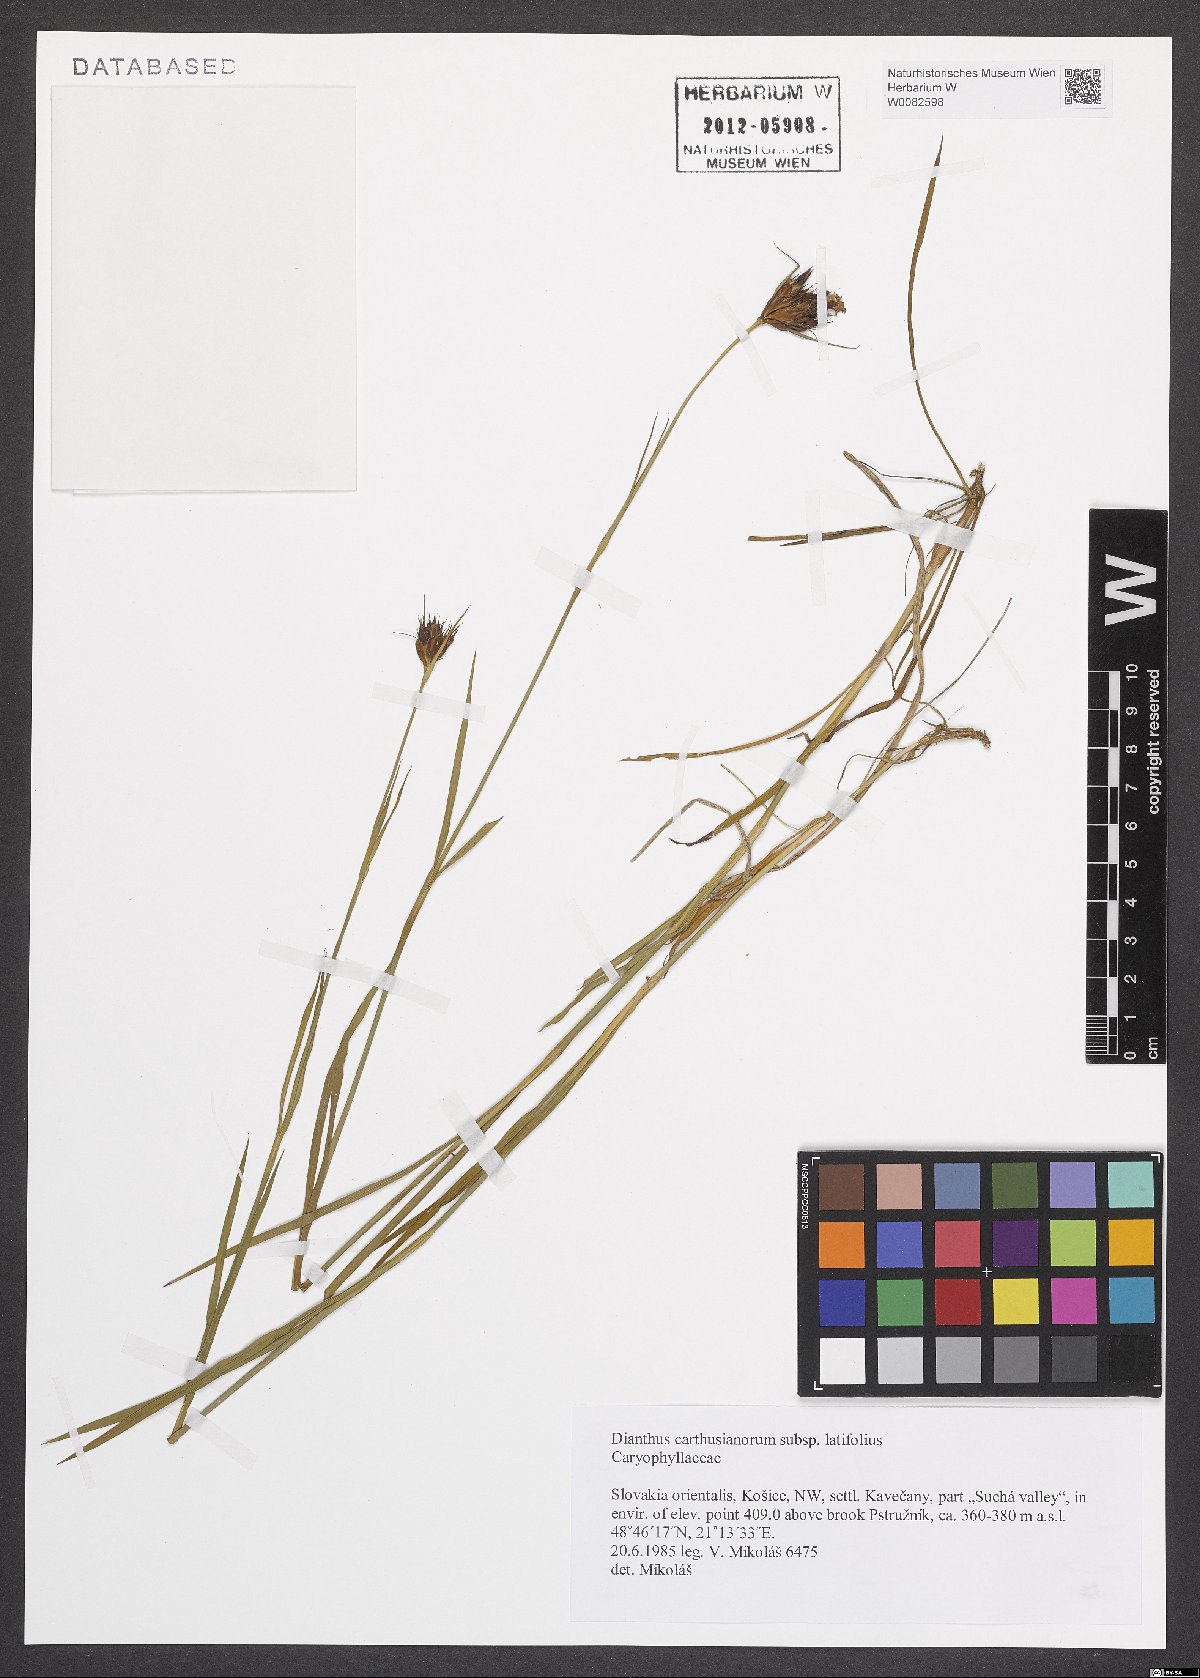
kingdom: Plantae
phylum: Tracheophyta
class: Magnoliopsida
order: Caryophyllales
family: Caryophyllaceae
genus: Dianthus
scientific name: Dianthus carthusianorum
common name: Carthusian pink
